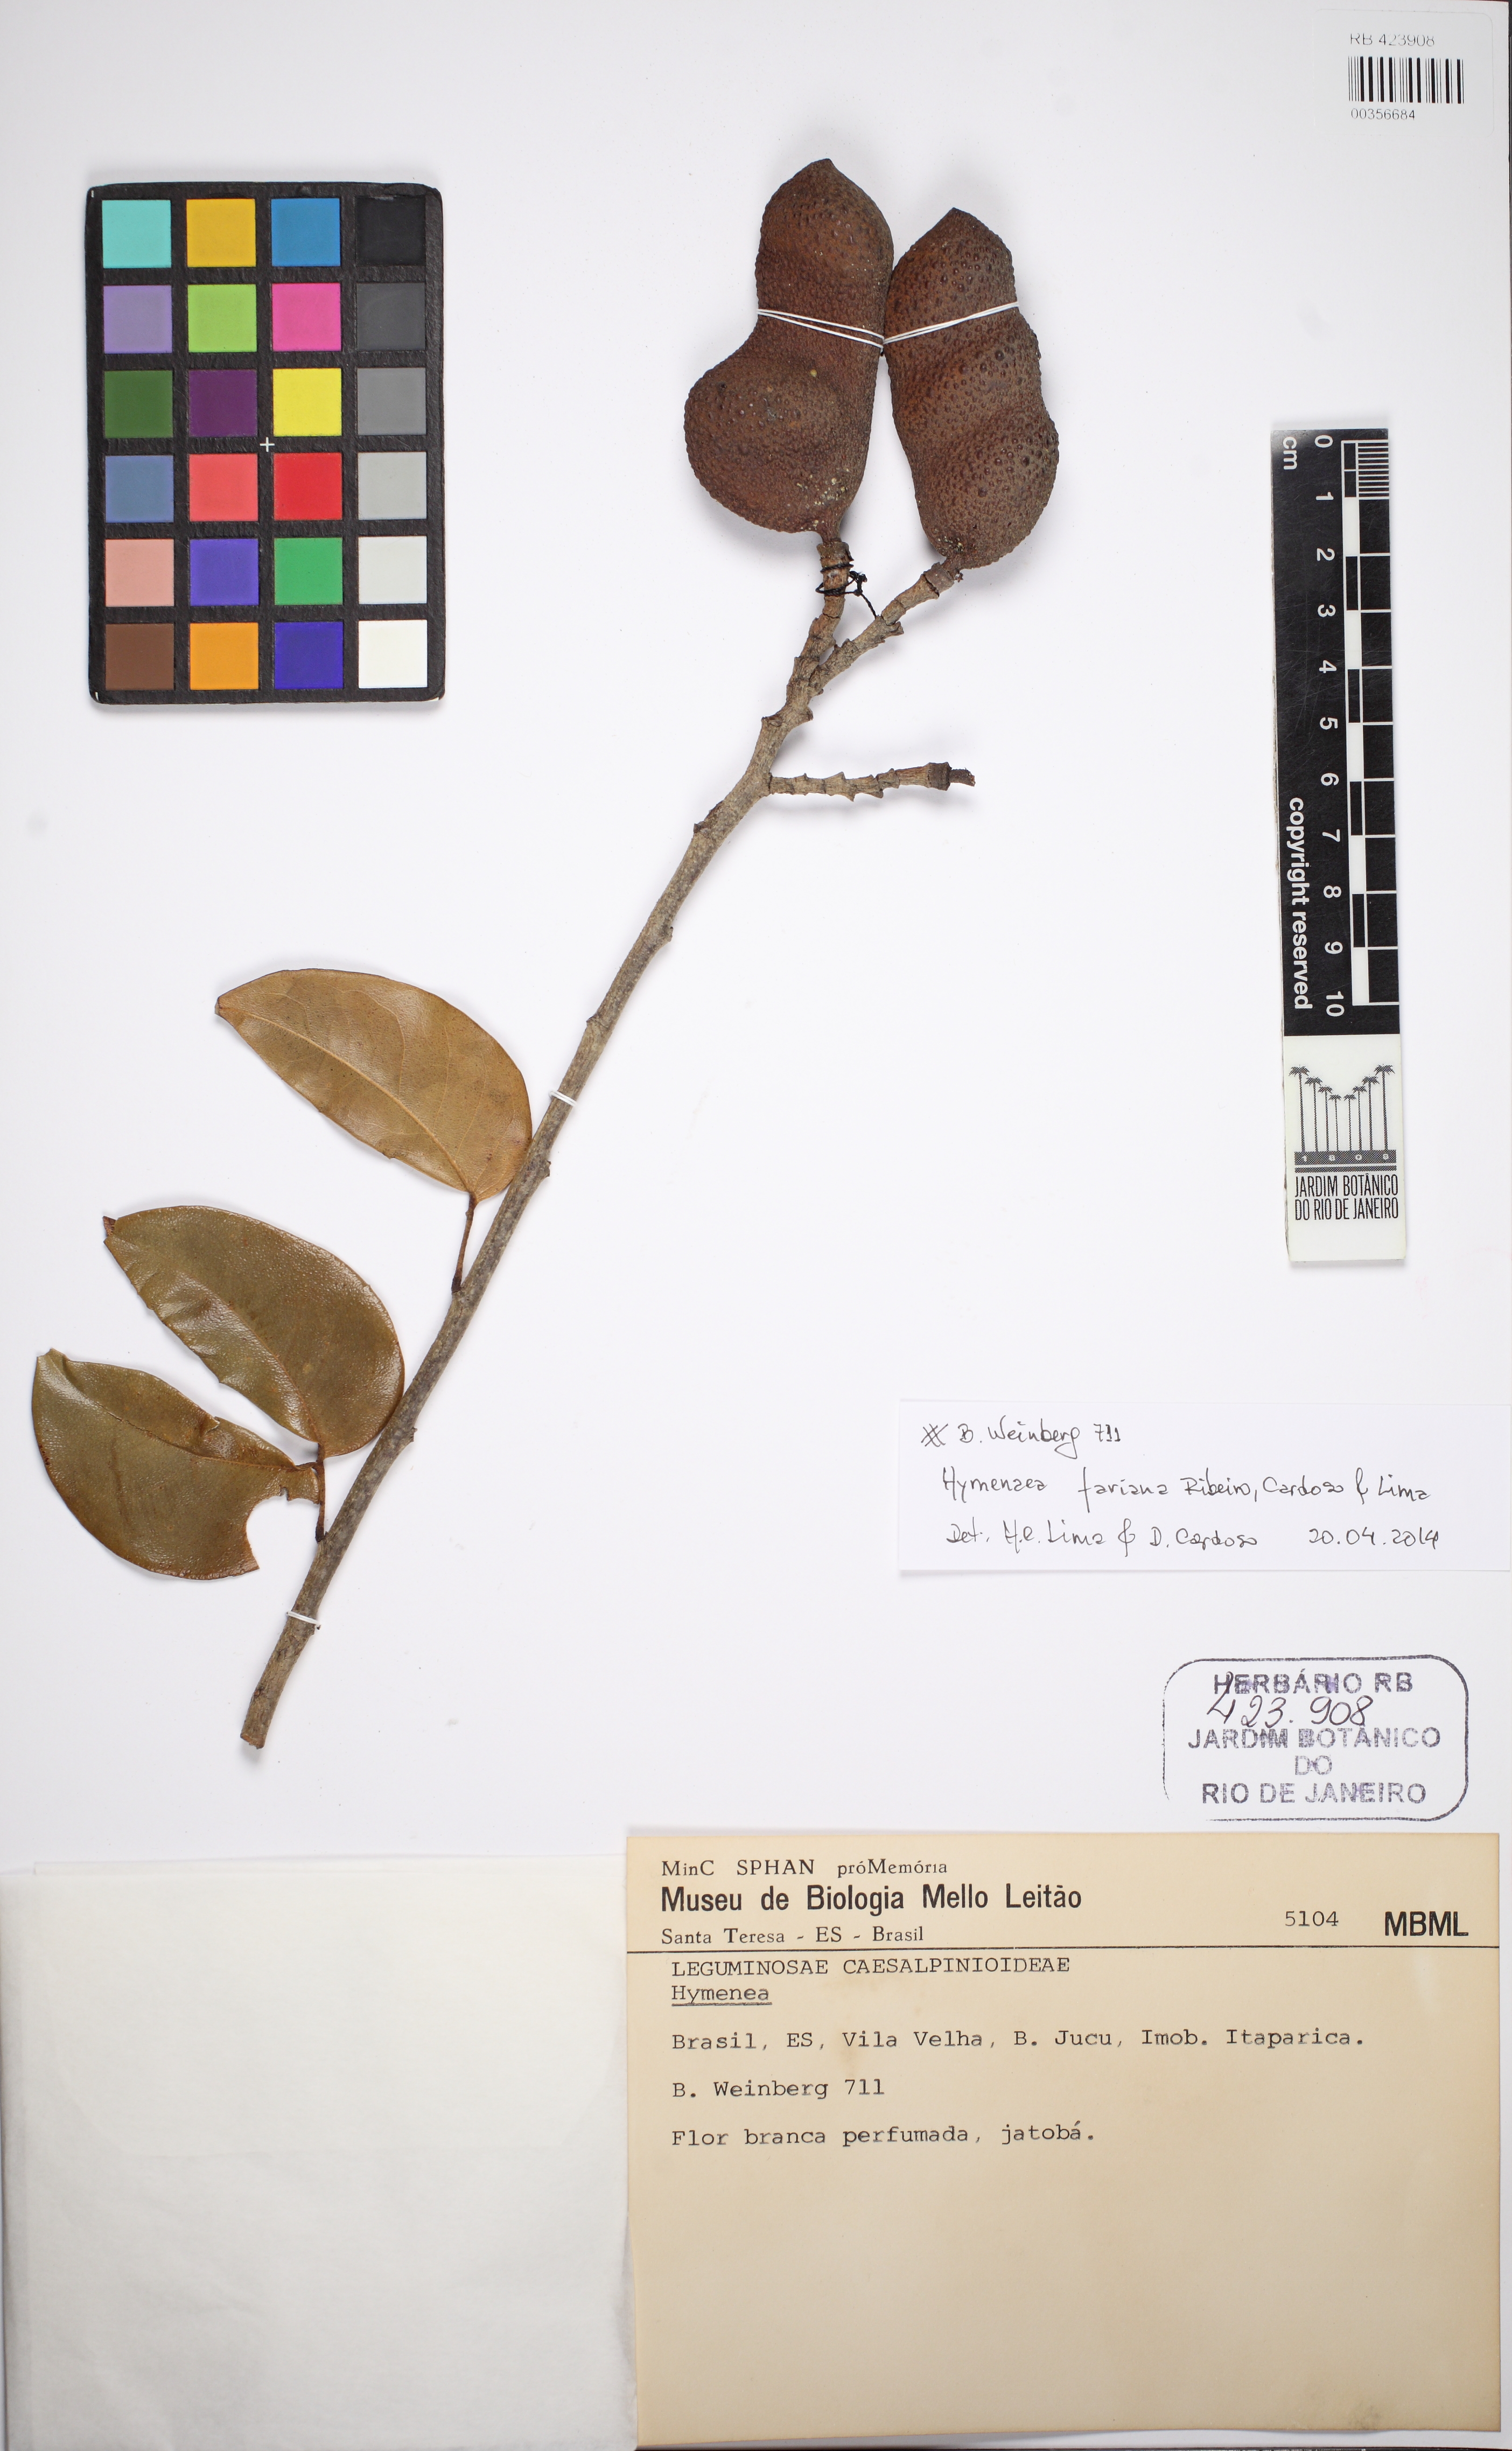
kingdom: Plantae
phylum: Tracheophyta
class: Magnoliopsida
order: Fabales
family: Fabaceae
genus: Hymenaea
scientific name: Hymenaea fariana
